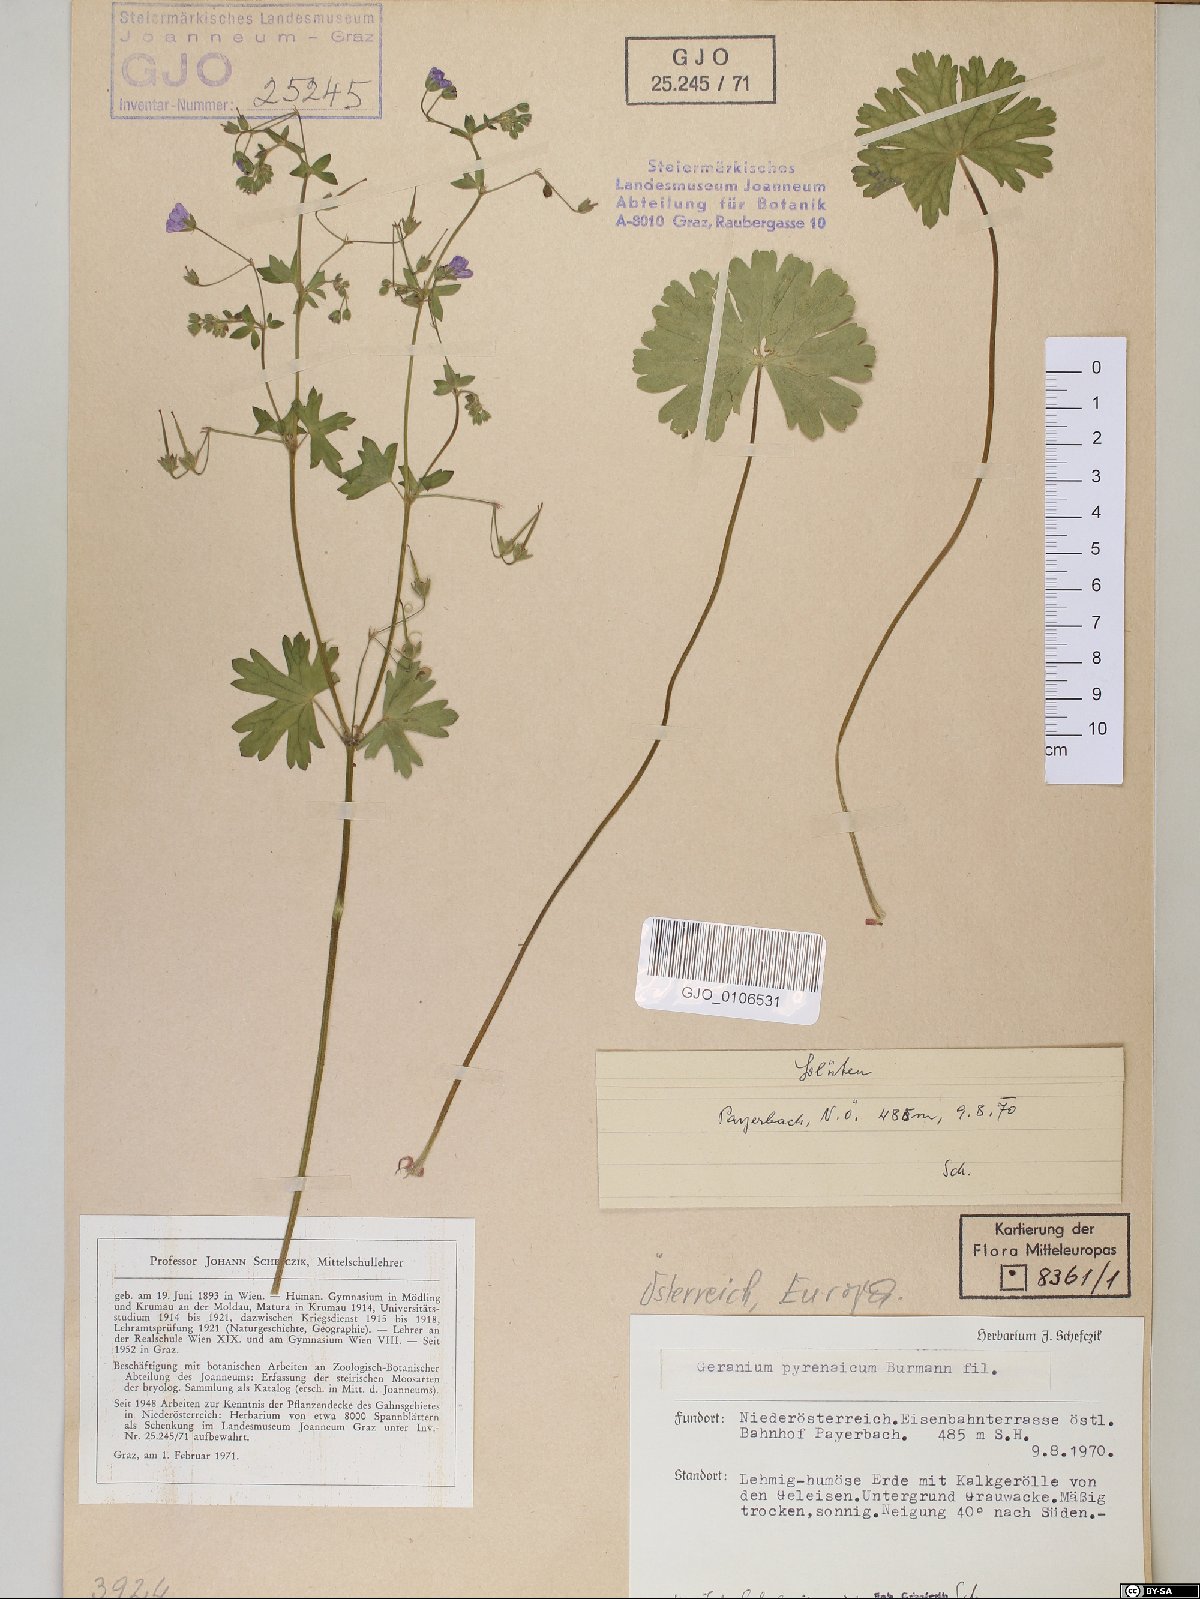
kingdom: Plantae
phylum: Tracheophyta
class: Magnoliopsida
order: Geraniales
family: Geraniaceae
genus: Geranium
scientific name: Geranium pyrenaicum
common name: Hedgerow crane's-bill
